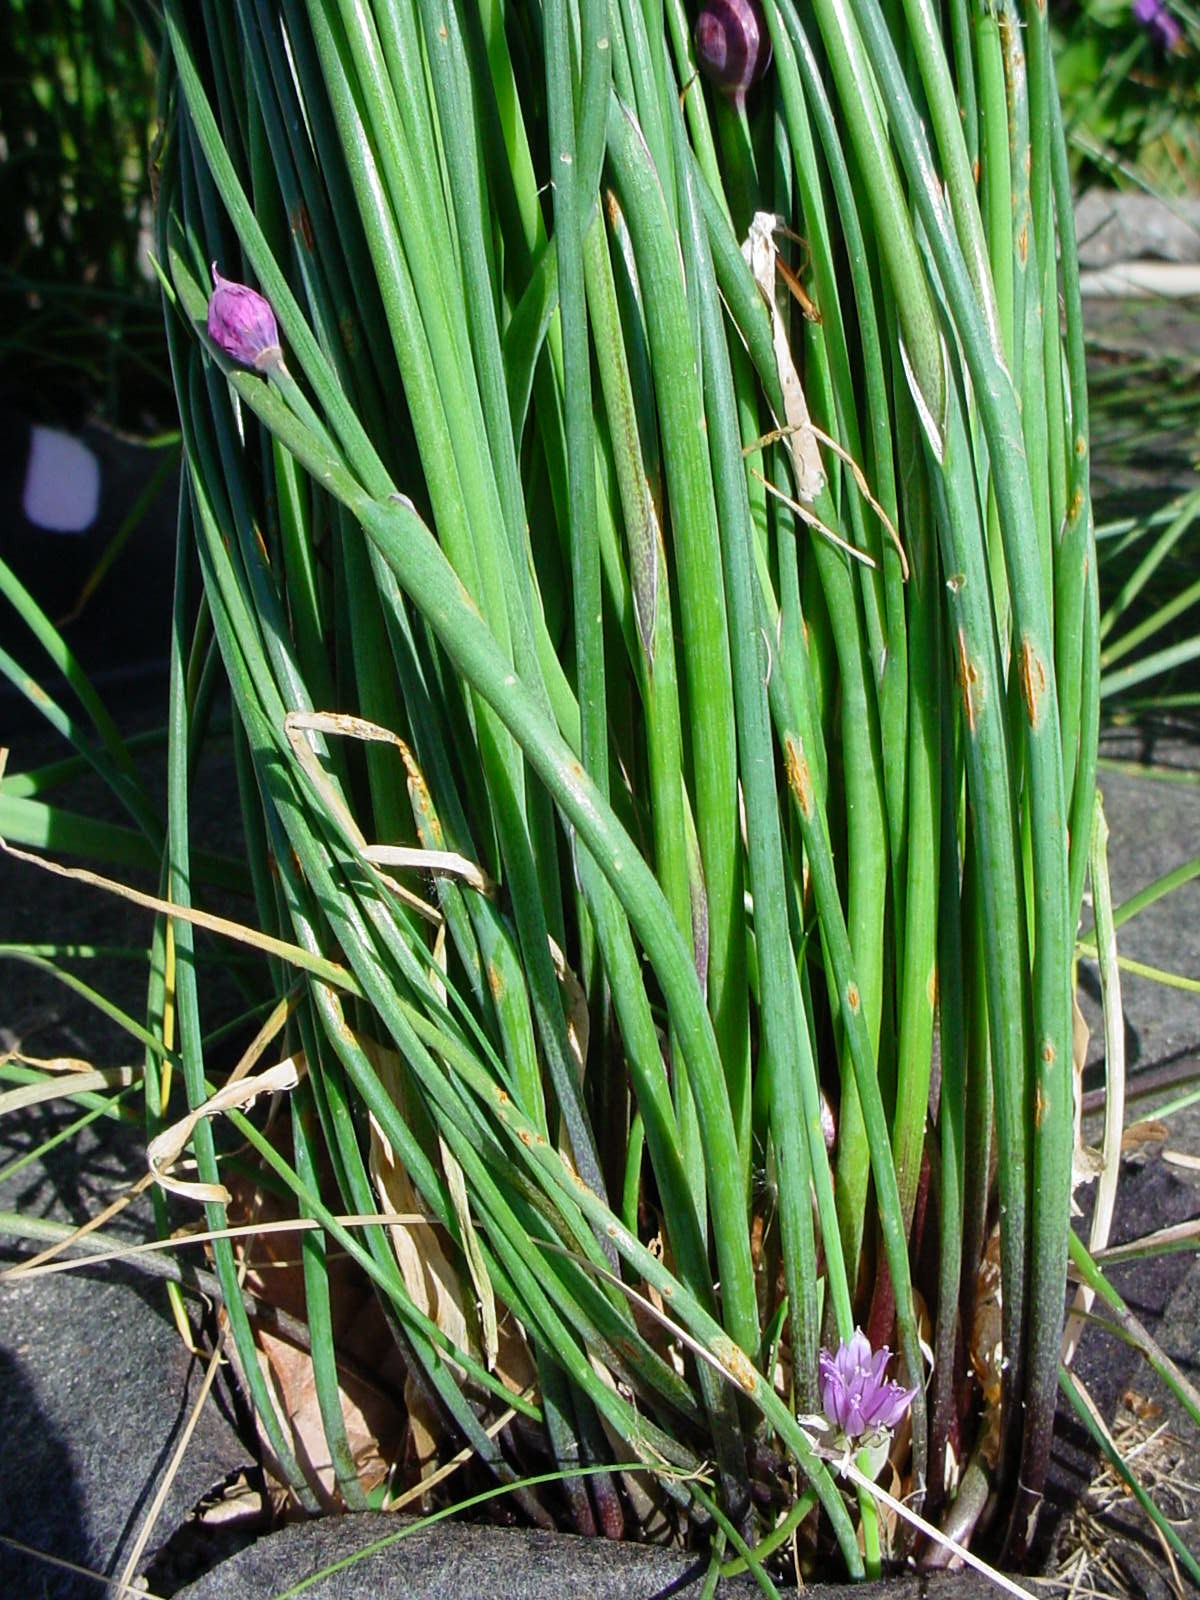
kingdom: Plantae
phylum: Tracheophyta
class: Liliopsida
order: Asparagales
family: Amaryllidaceae
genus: Allium
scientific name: Allium schoenoprasum
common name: Chives
